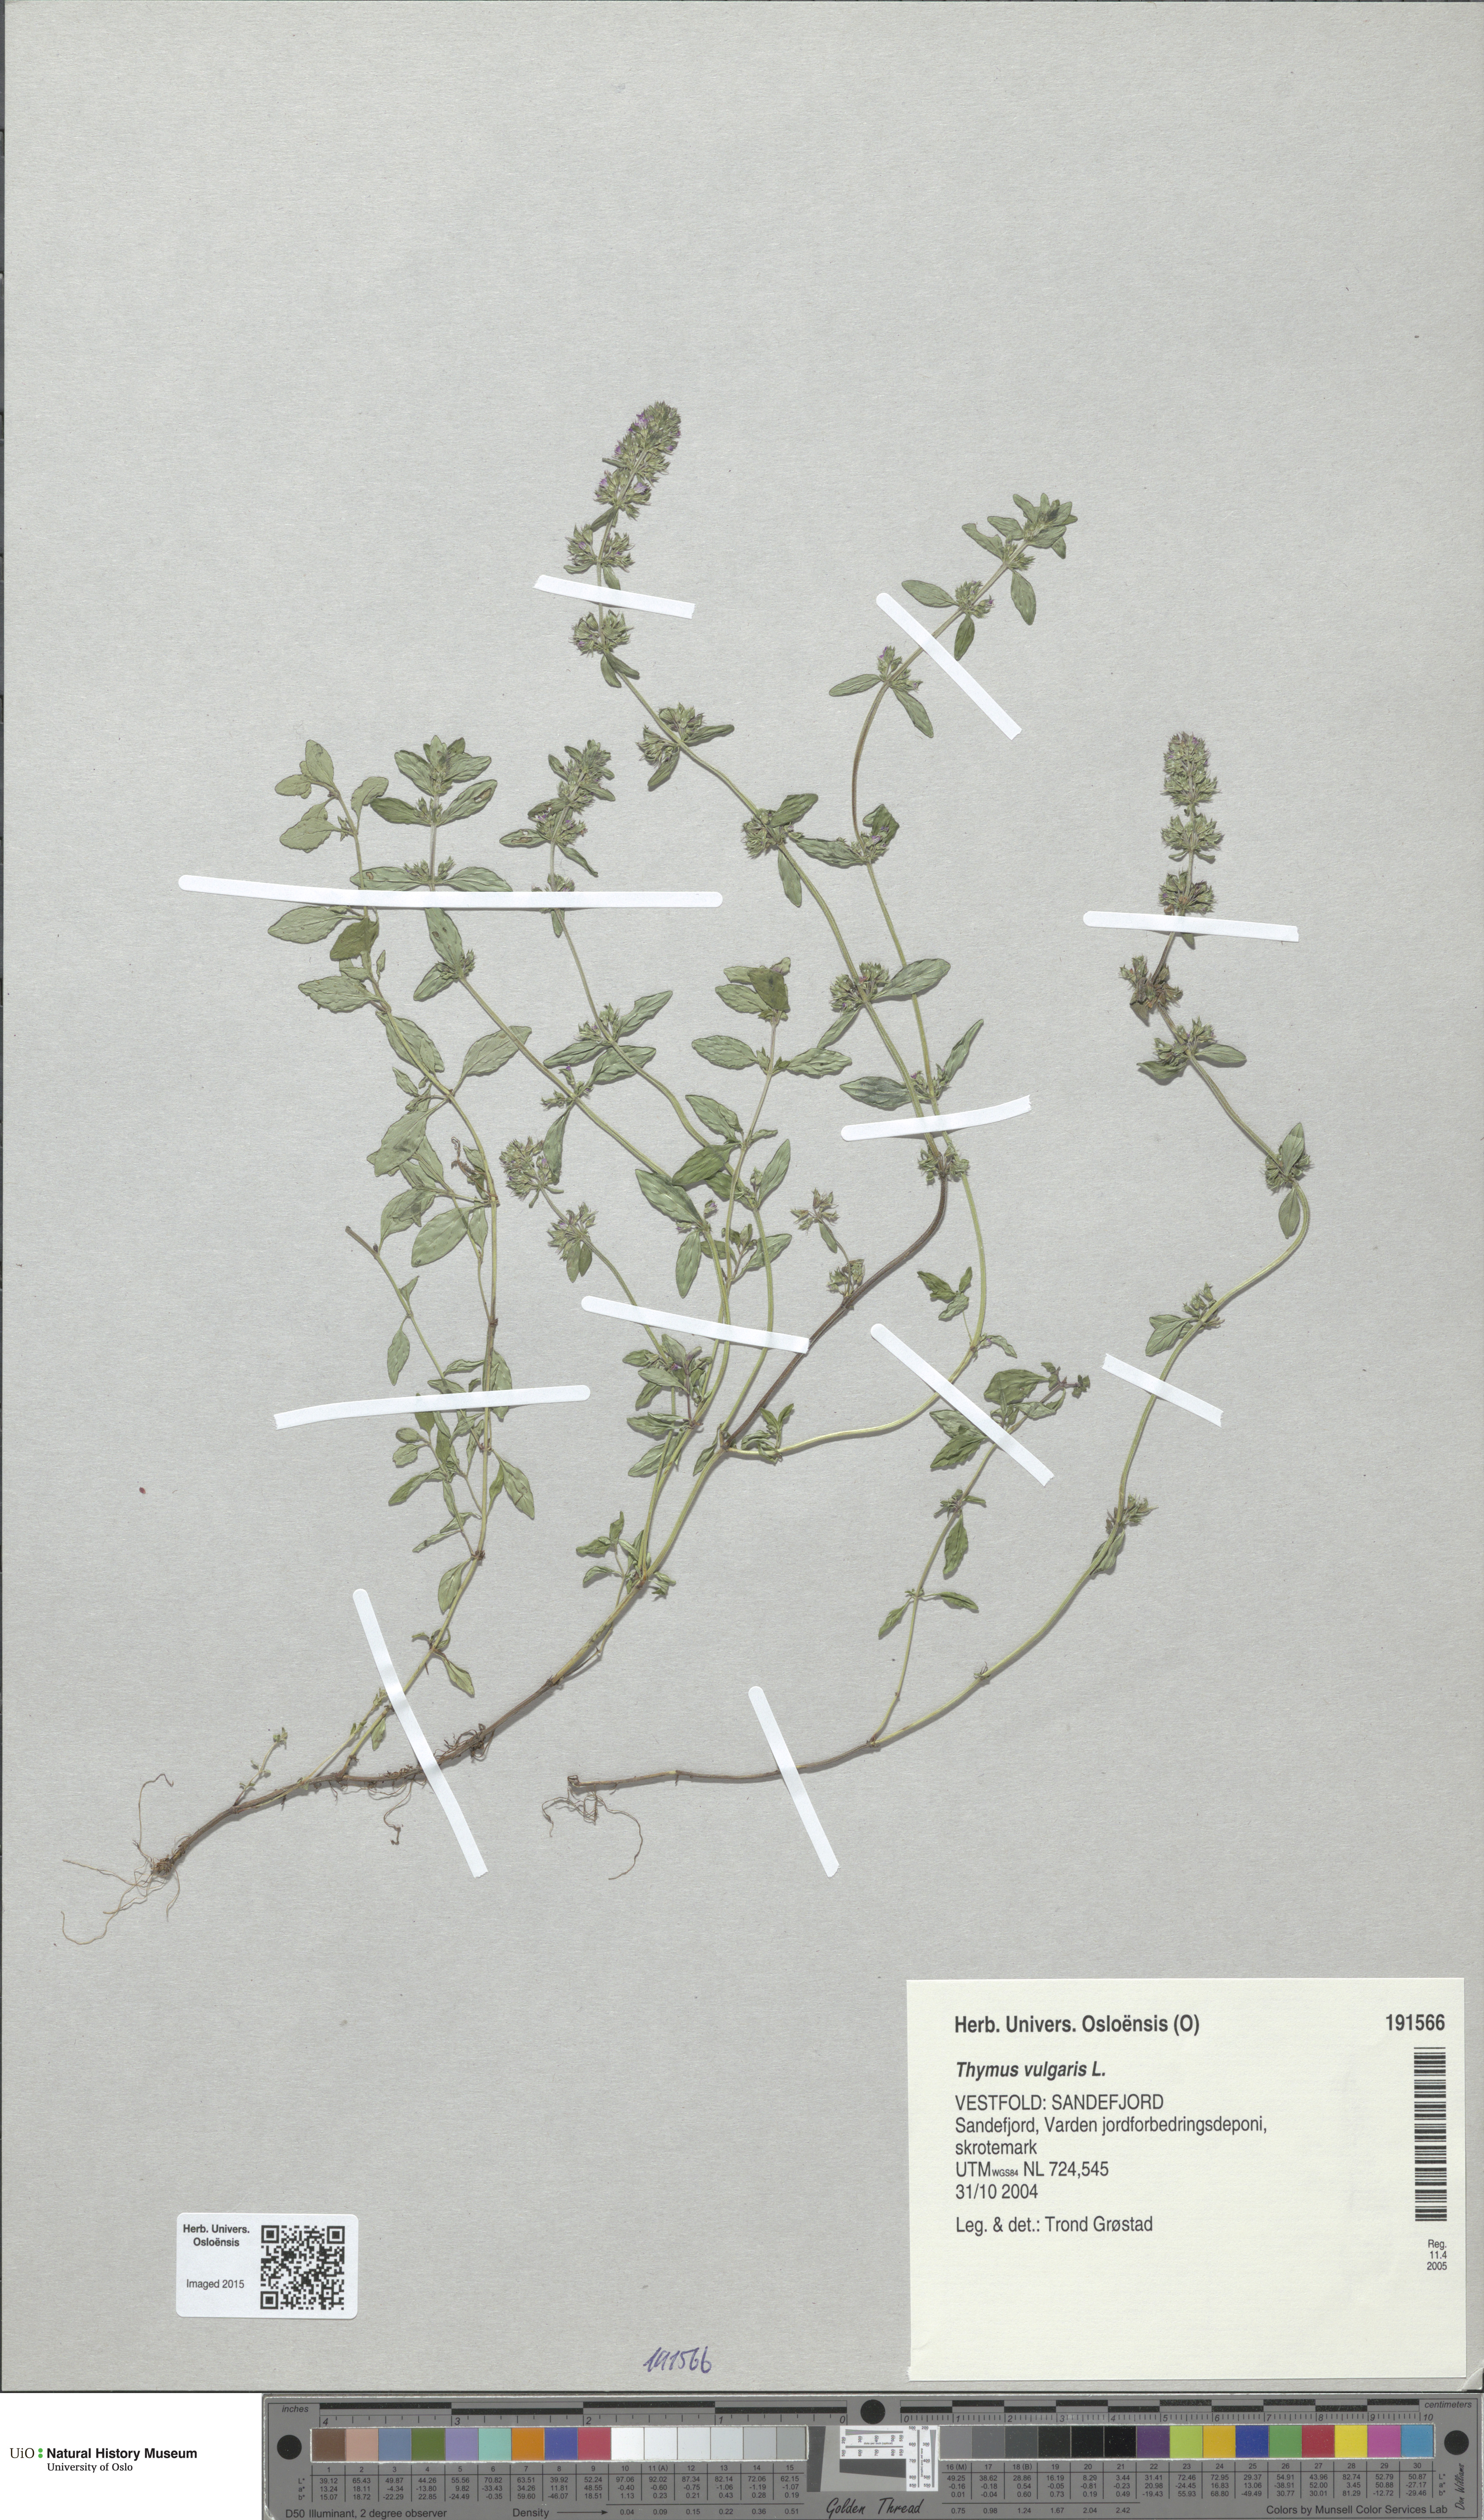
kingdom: Plantae
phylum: Tracheophyta
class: Magnoliopsida
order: Lamiales
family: Lamiaceae
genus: Thymus
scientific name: Thymus vulgaris
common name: Garden thyme
